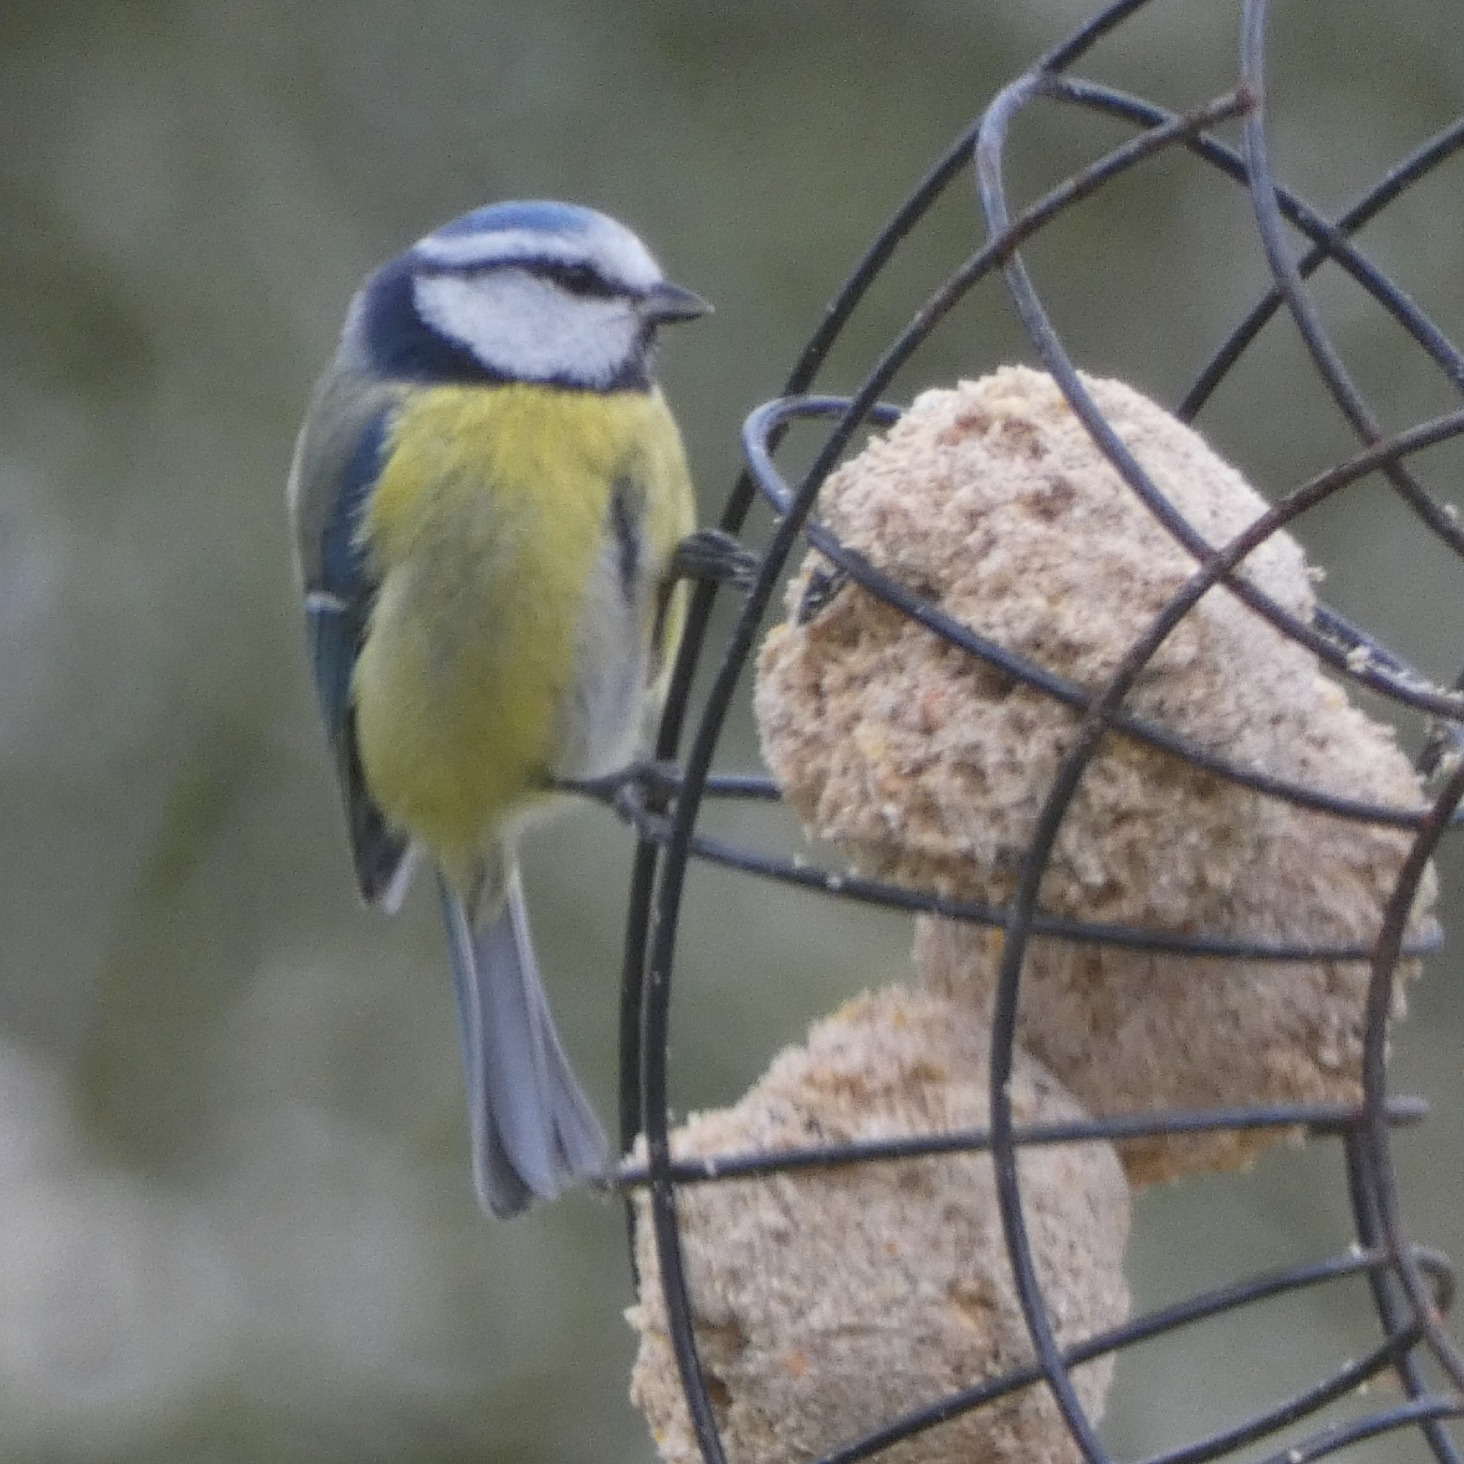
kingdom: Animalia
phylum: Chordata
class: Aves
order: Passeriformes
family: Paridae
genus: Cyanistes
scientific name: Cyanistes caeruleus
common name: Blåmejse
